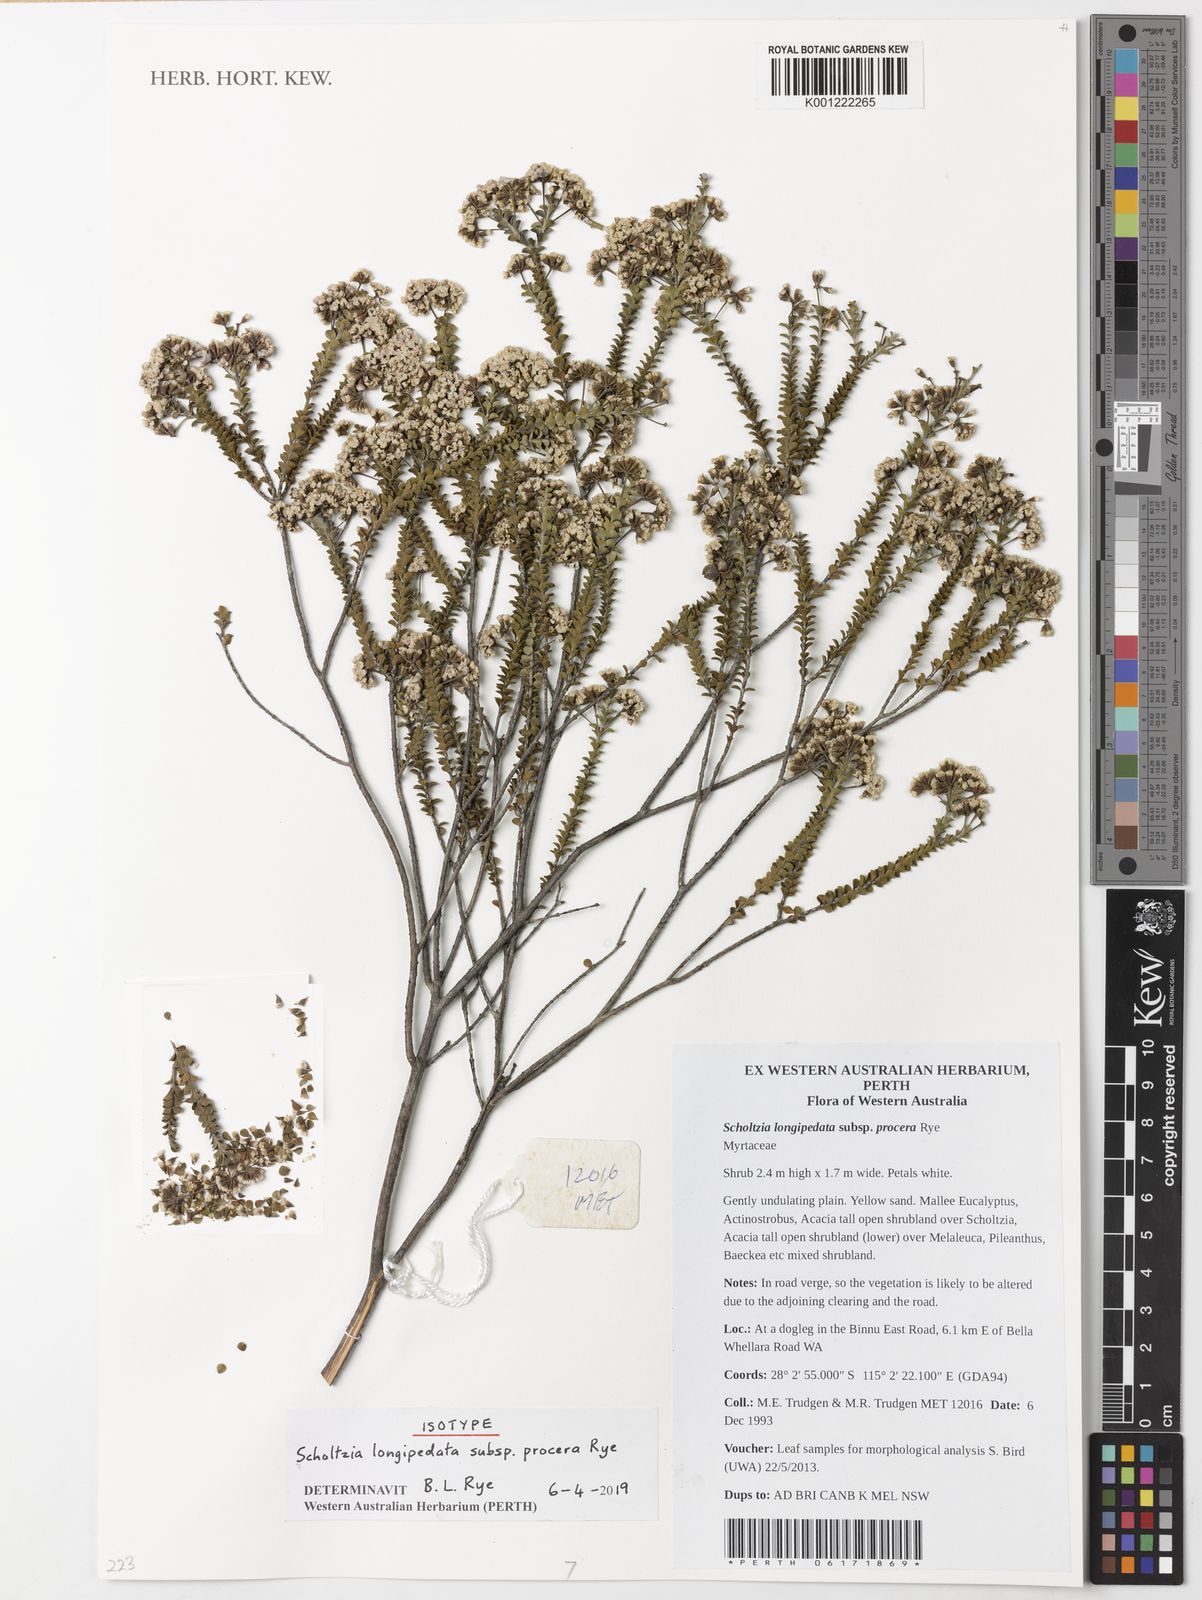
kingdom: Plantae
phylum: Tracheophyta
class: Magnoliopsida
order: Myrtales
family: Myrtaceae
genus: Scholtzia
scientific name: Scholtzia
